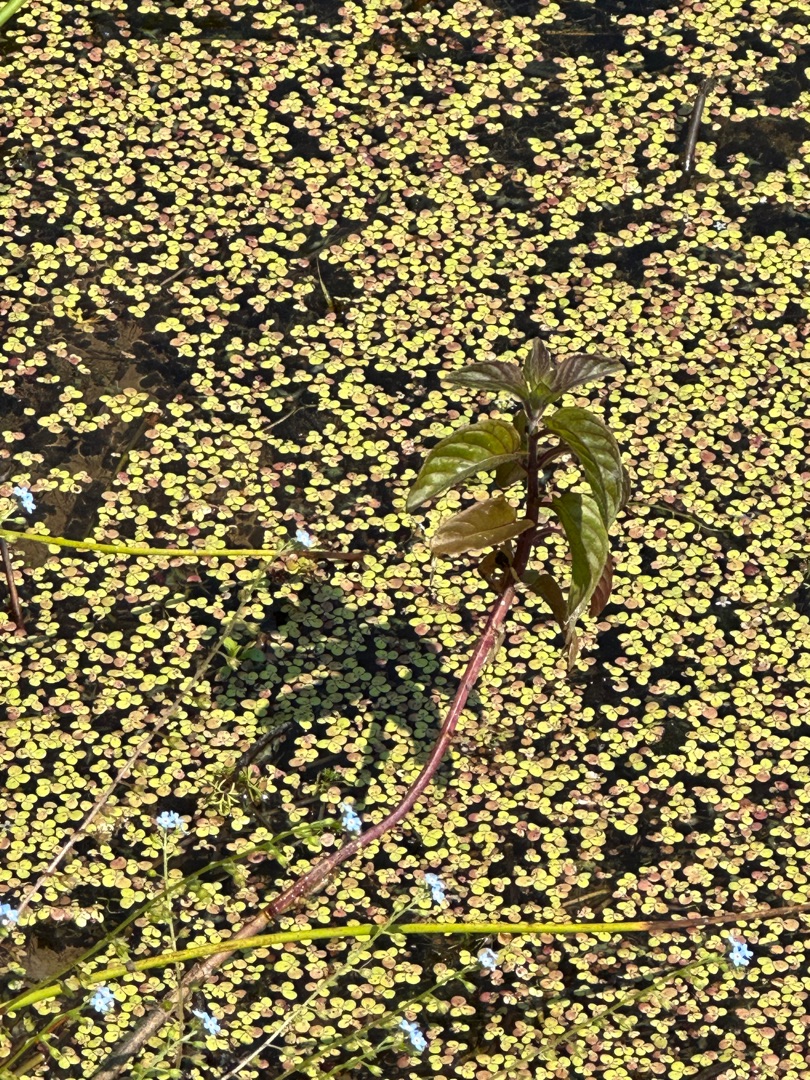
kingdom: Plantae
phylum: Tracheophyta
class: Magnoliopsida
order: Lamiales
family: Lamiaceae
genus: Mentha
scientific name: Mentha aquatica
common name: Vand-mynte
